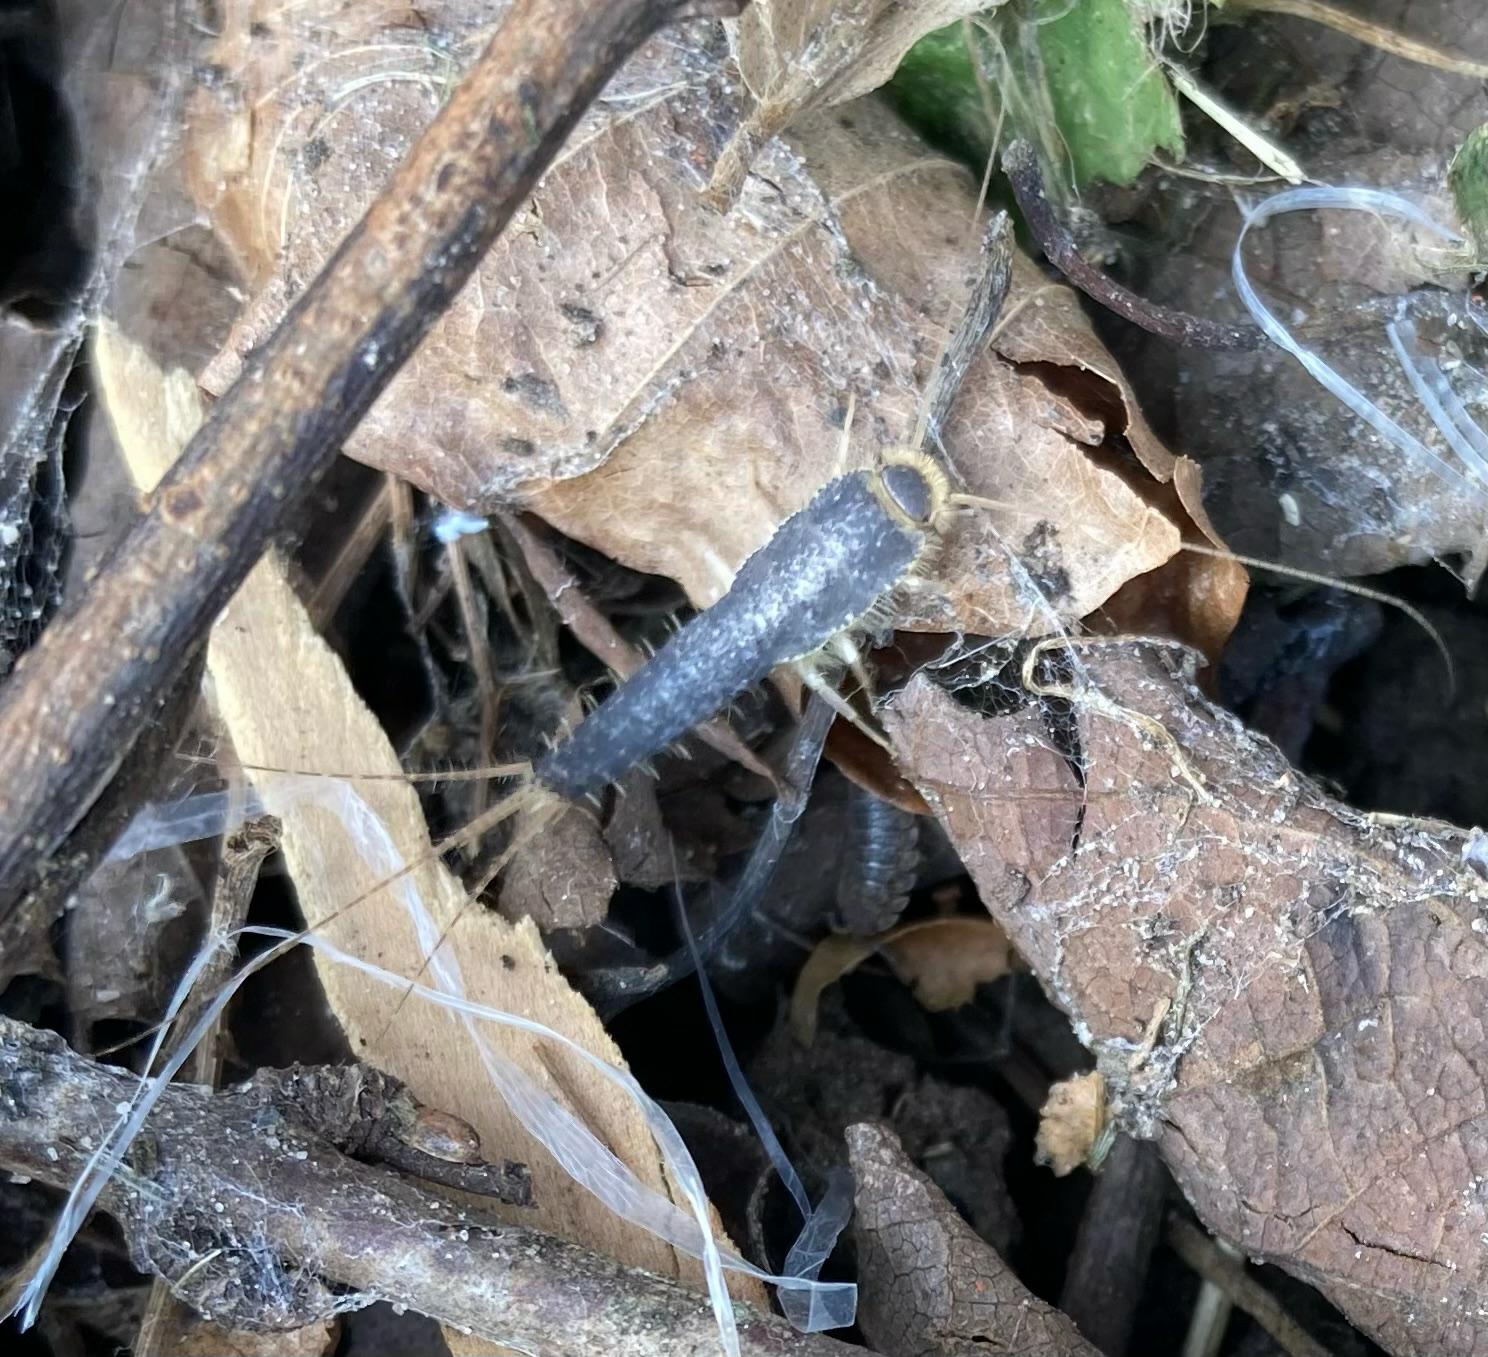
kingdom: Animalia
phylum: Arthropoda
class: Insecta
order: Zygentoma
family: Lepismatidae
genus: Ctenolepisma
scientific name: Ctenolepisma longicaudatum
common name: Skægget sølvkræ
